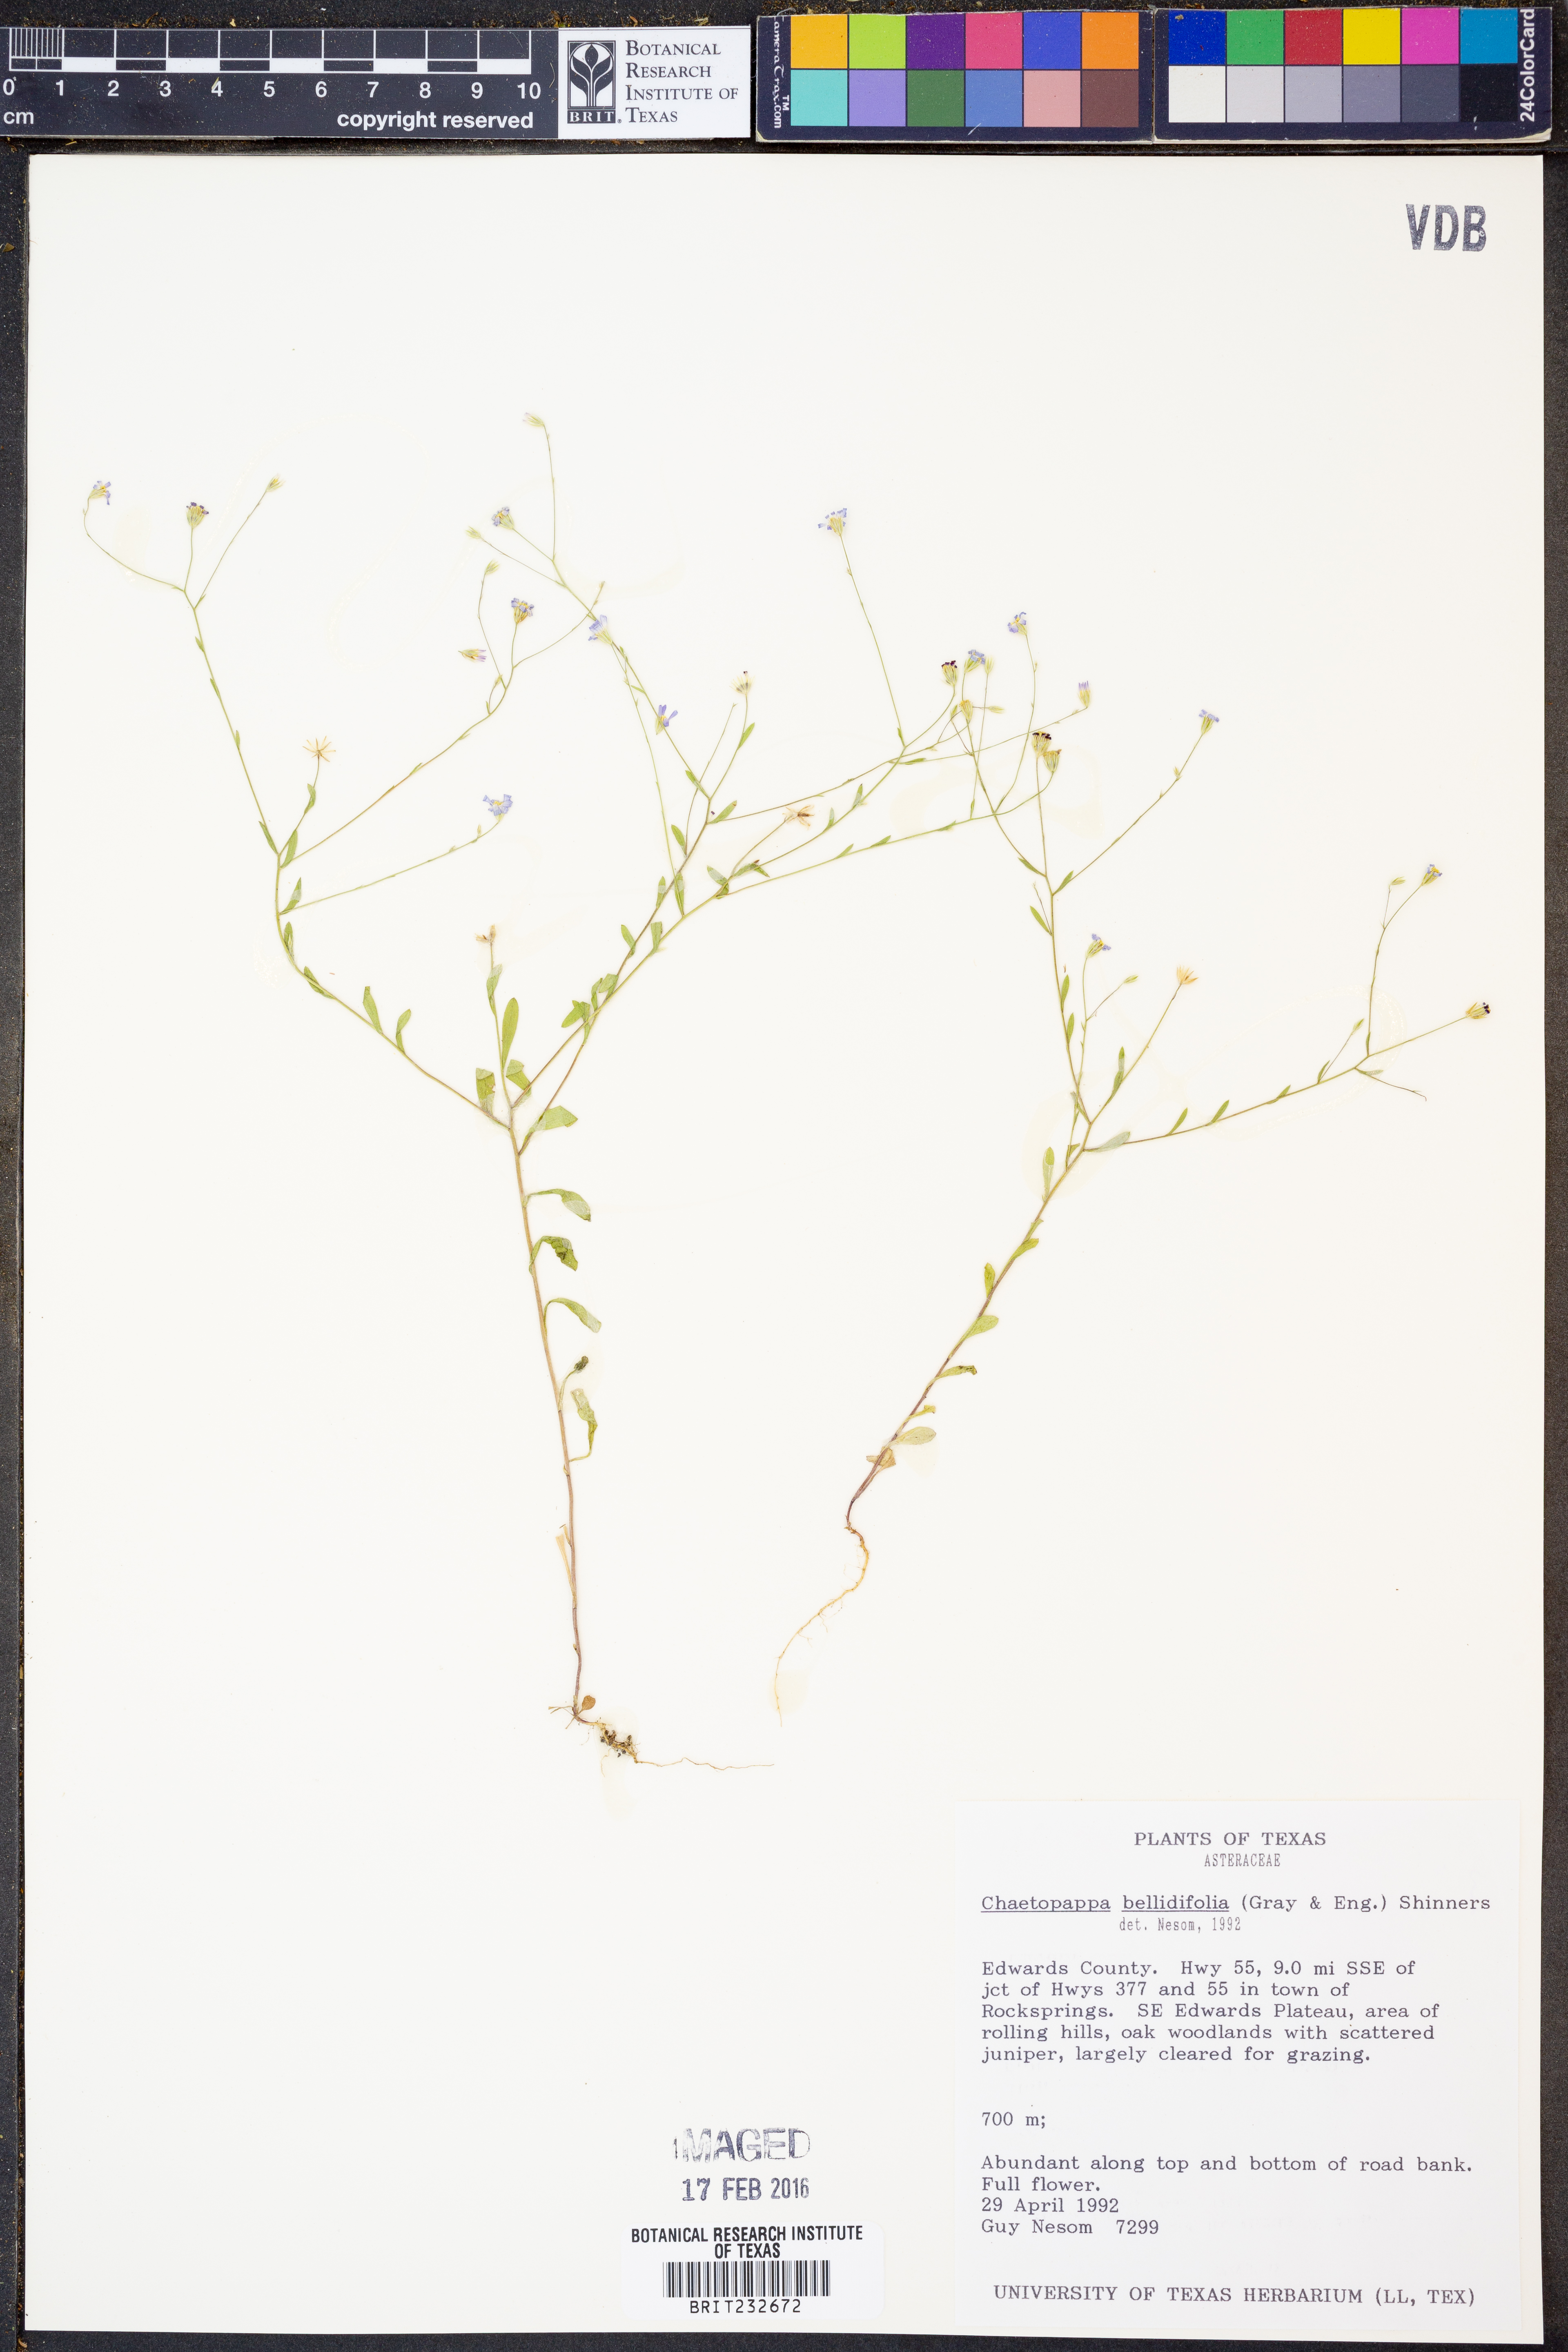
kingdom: Plantae
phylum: Tracheophyta
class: Magnoliopsida
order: Asterales
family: Asteraceae
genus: Chaetopappa
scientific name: Chaetopappa bellidifolia
